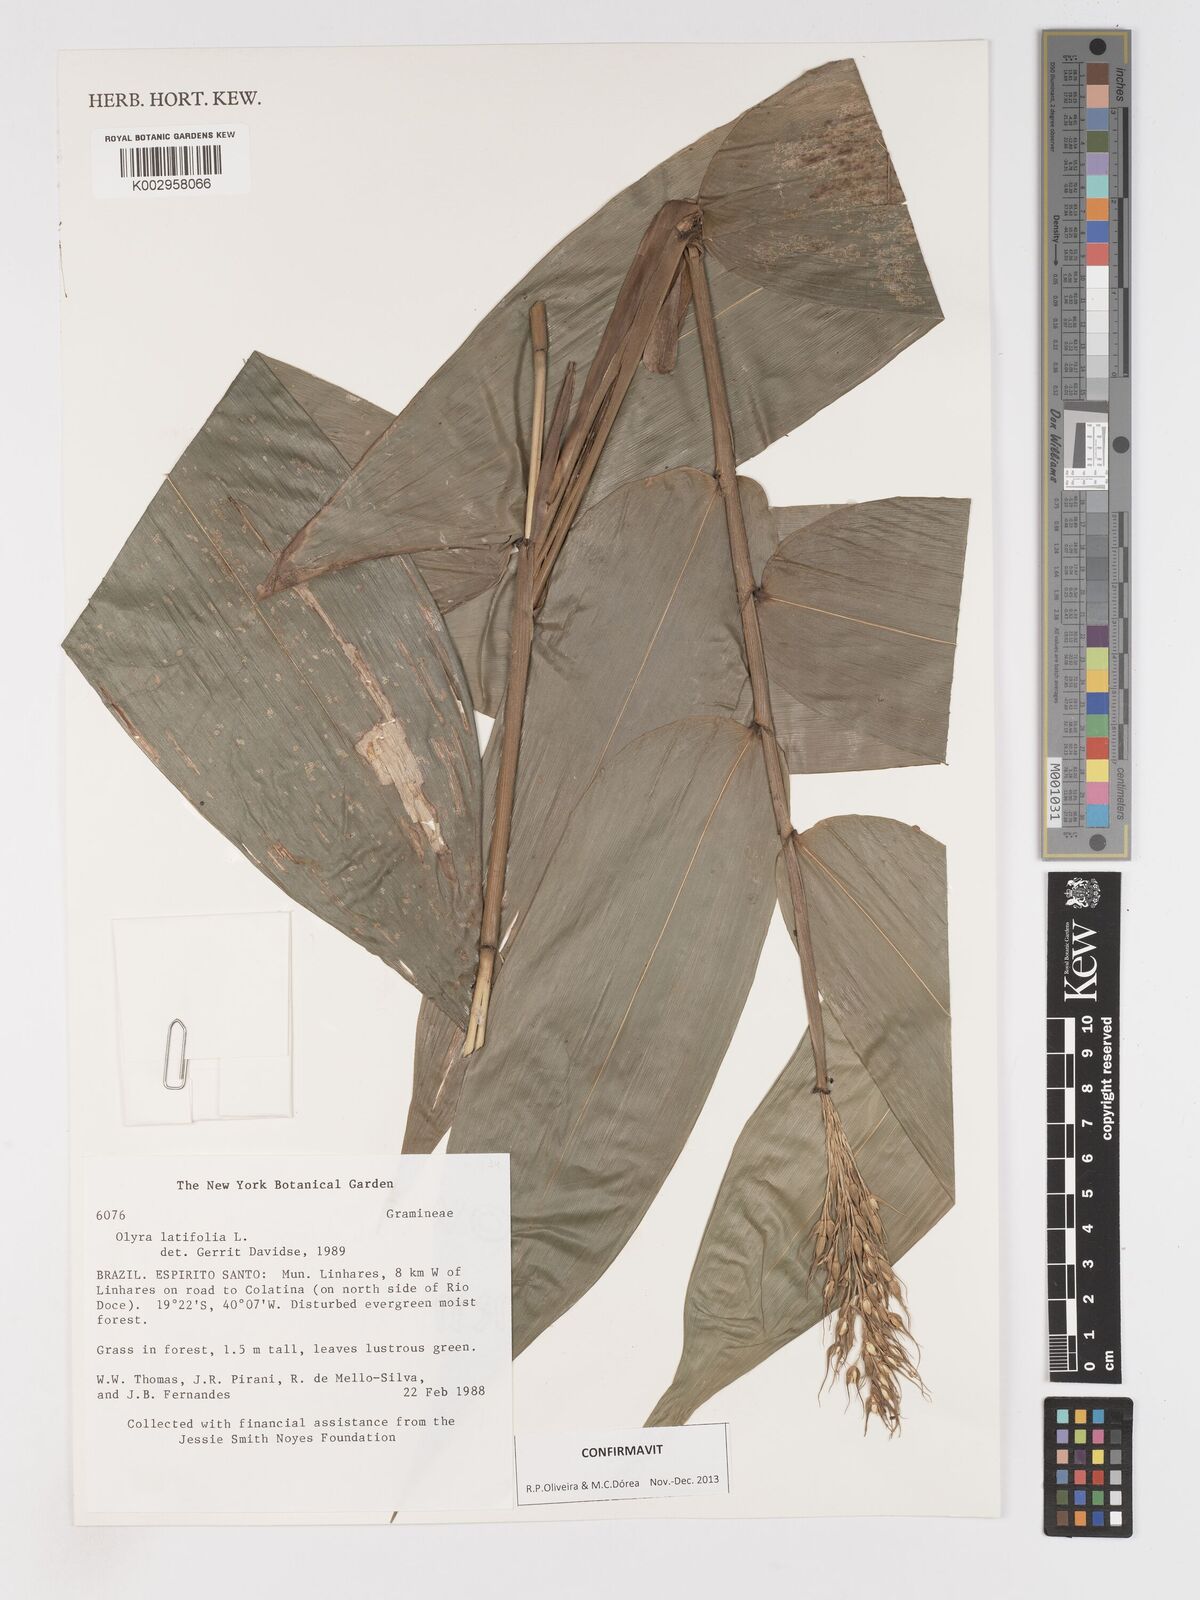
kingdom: Plantae
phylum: Tracheophyta
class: Liliopsida
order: Poales
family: Poaceae
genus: Olyra
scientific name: Olyra latifolia
